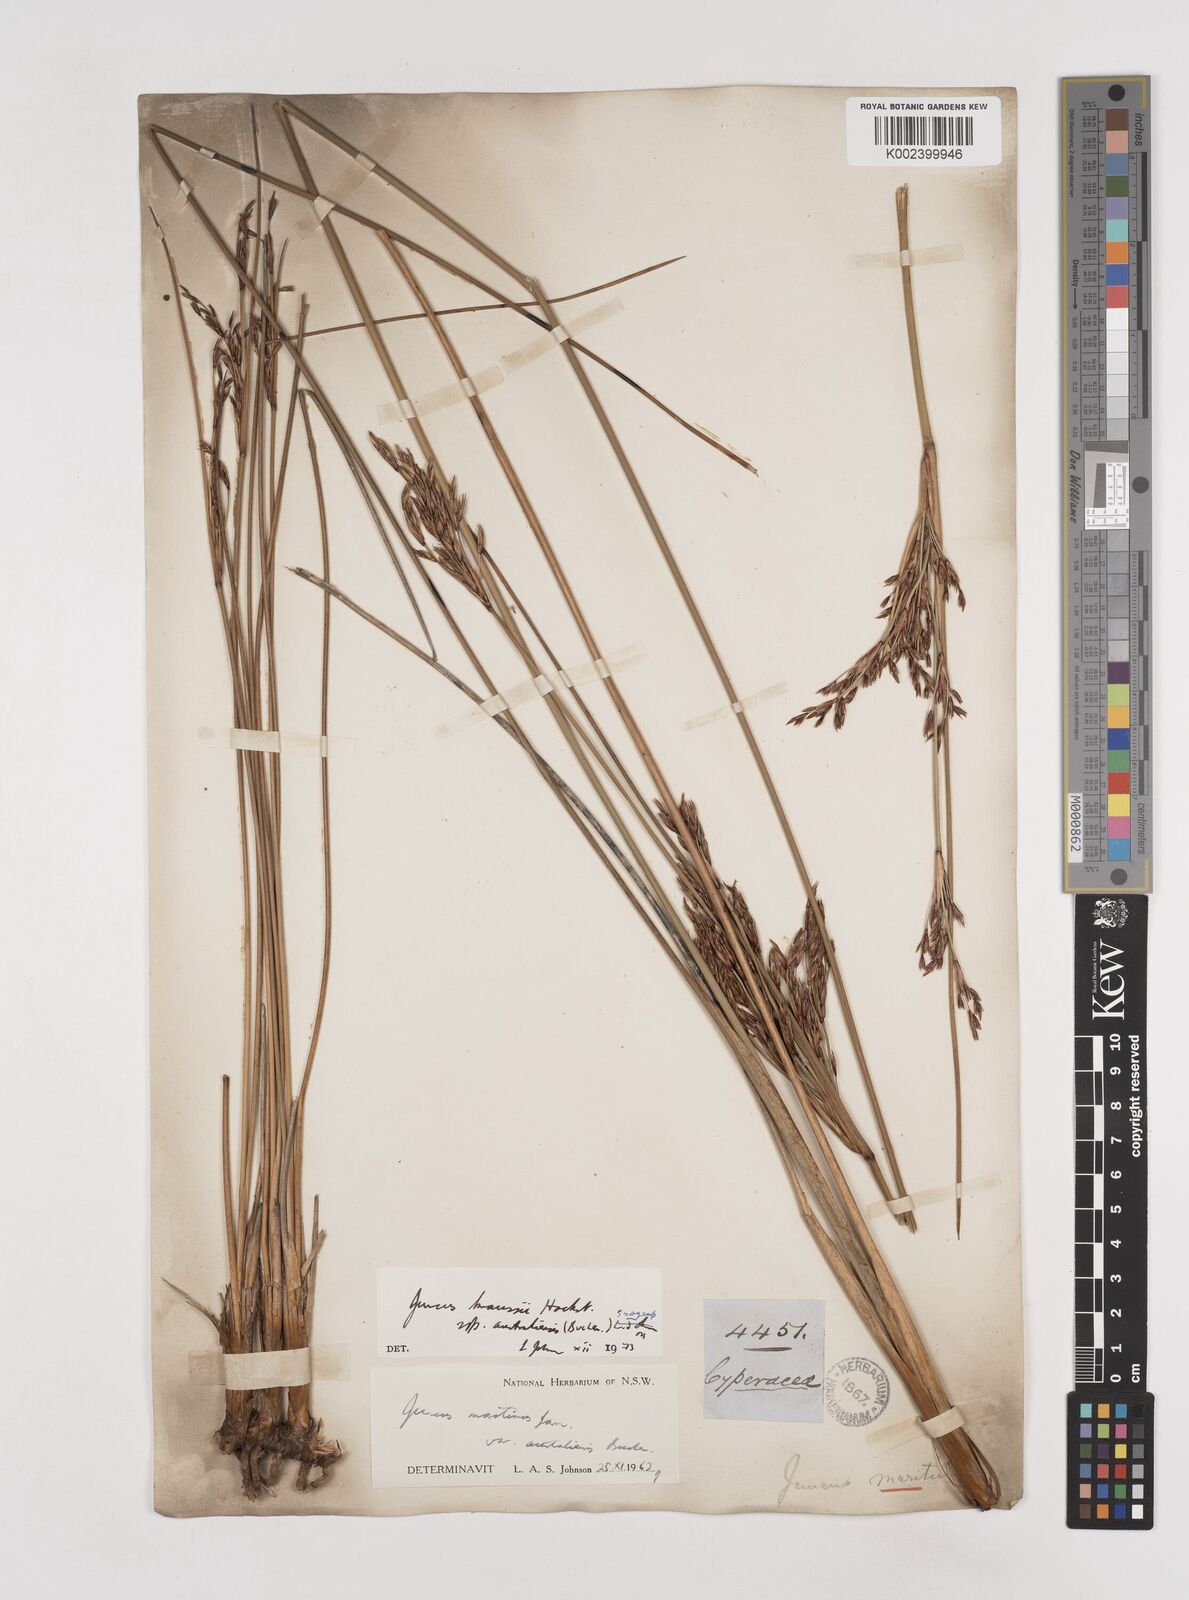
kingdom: Plantae
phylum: Tracheophyta
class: Liliopsida
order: Poales
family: Juncaceae
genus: Juncus
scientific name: Juncus kraussii
